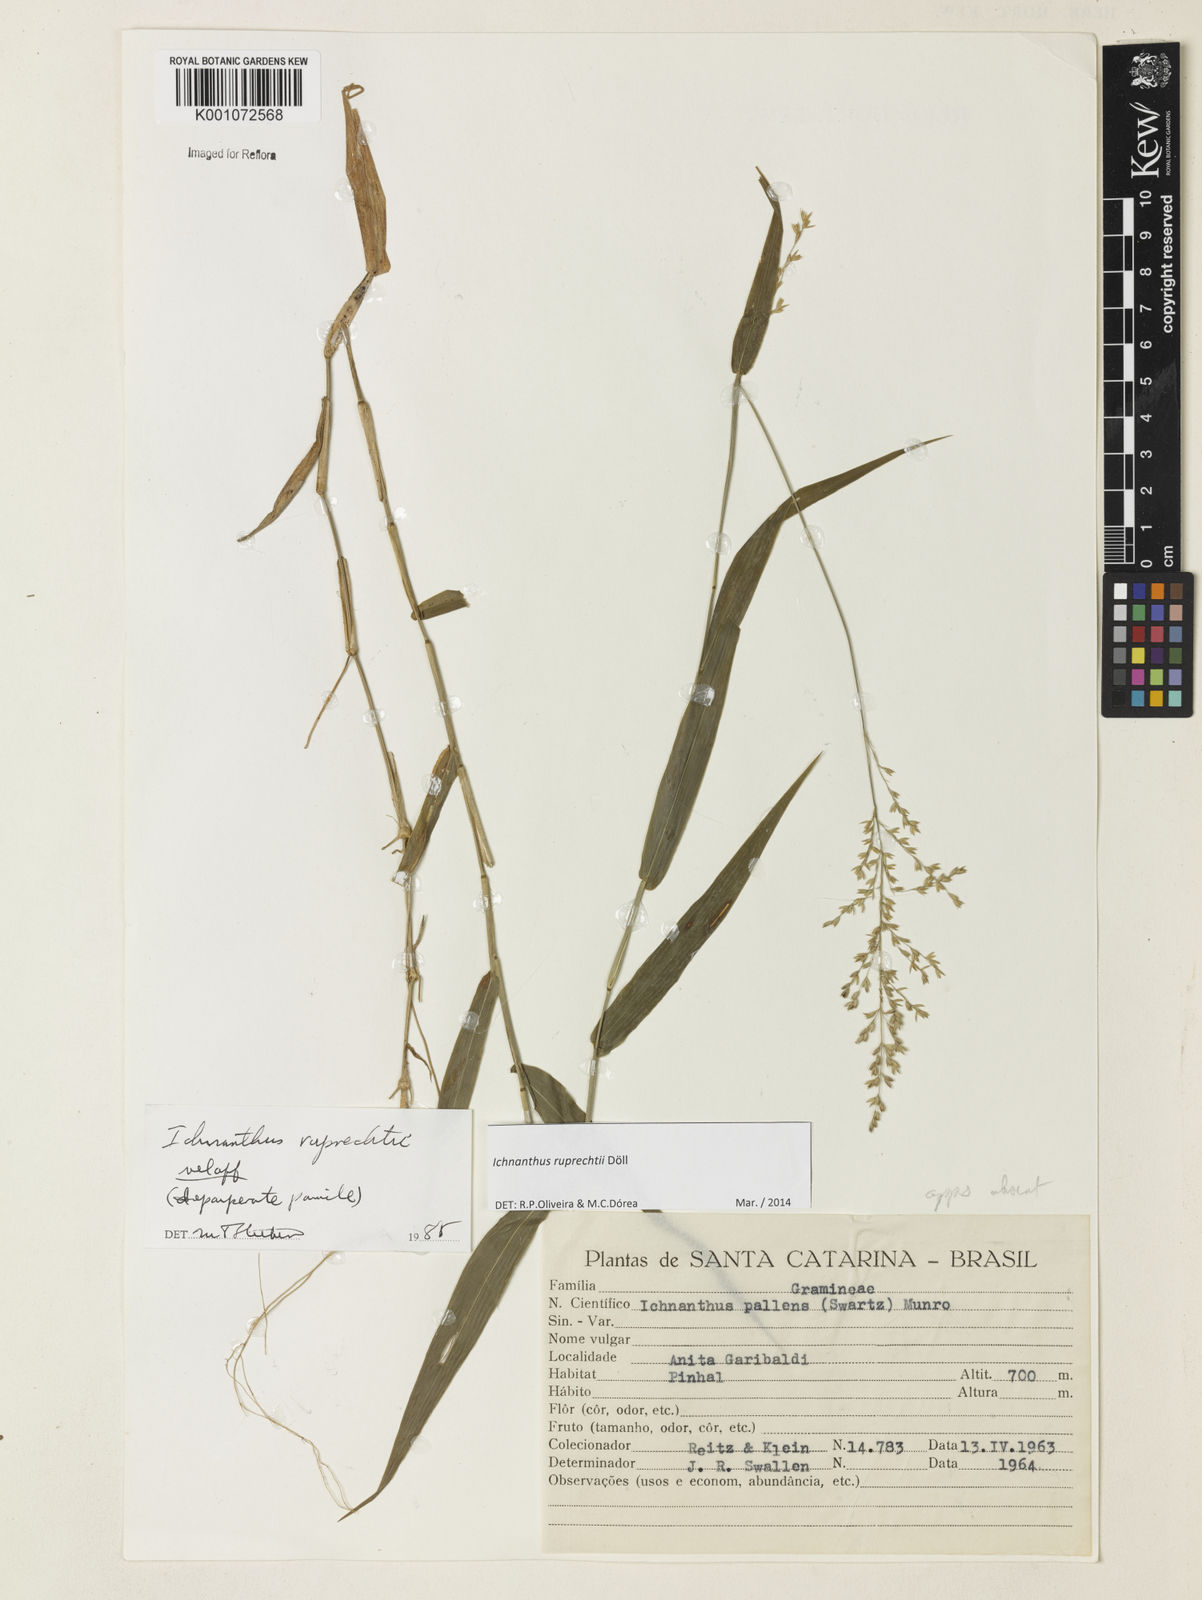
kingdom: Plantae
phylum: Tracheophyta
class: Liliopsida
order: Poales
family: Poaceae
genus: Ichnanthus
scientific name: Ichnanthus
